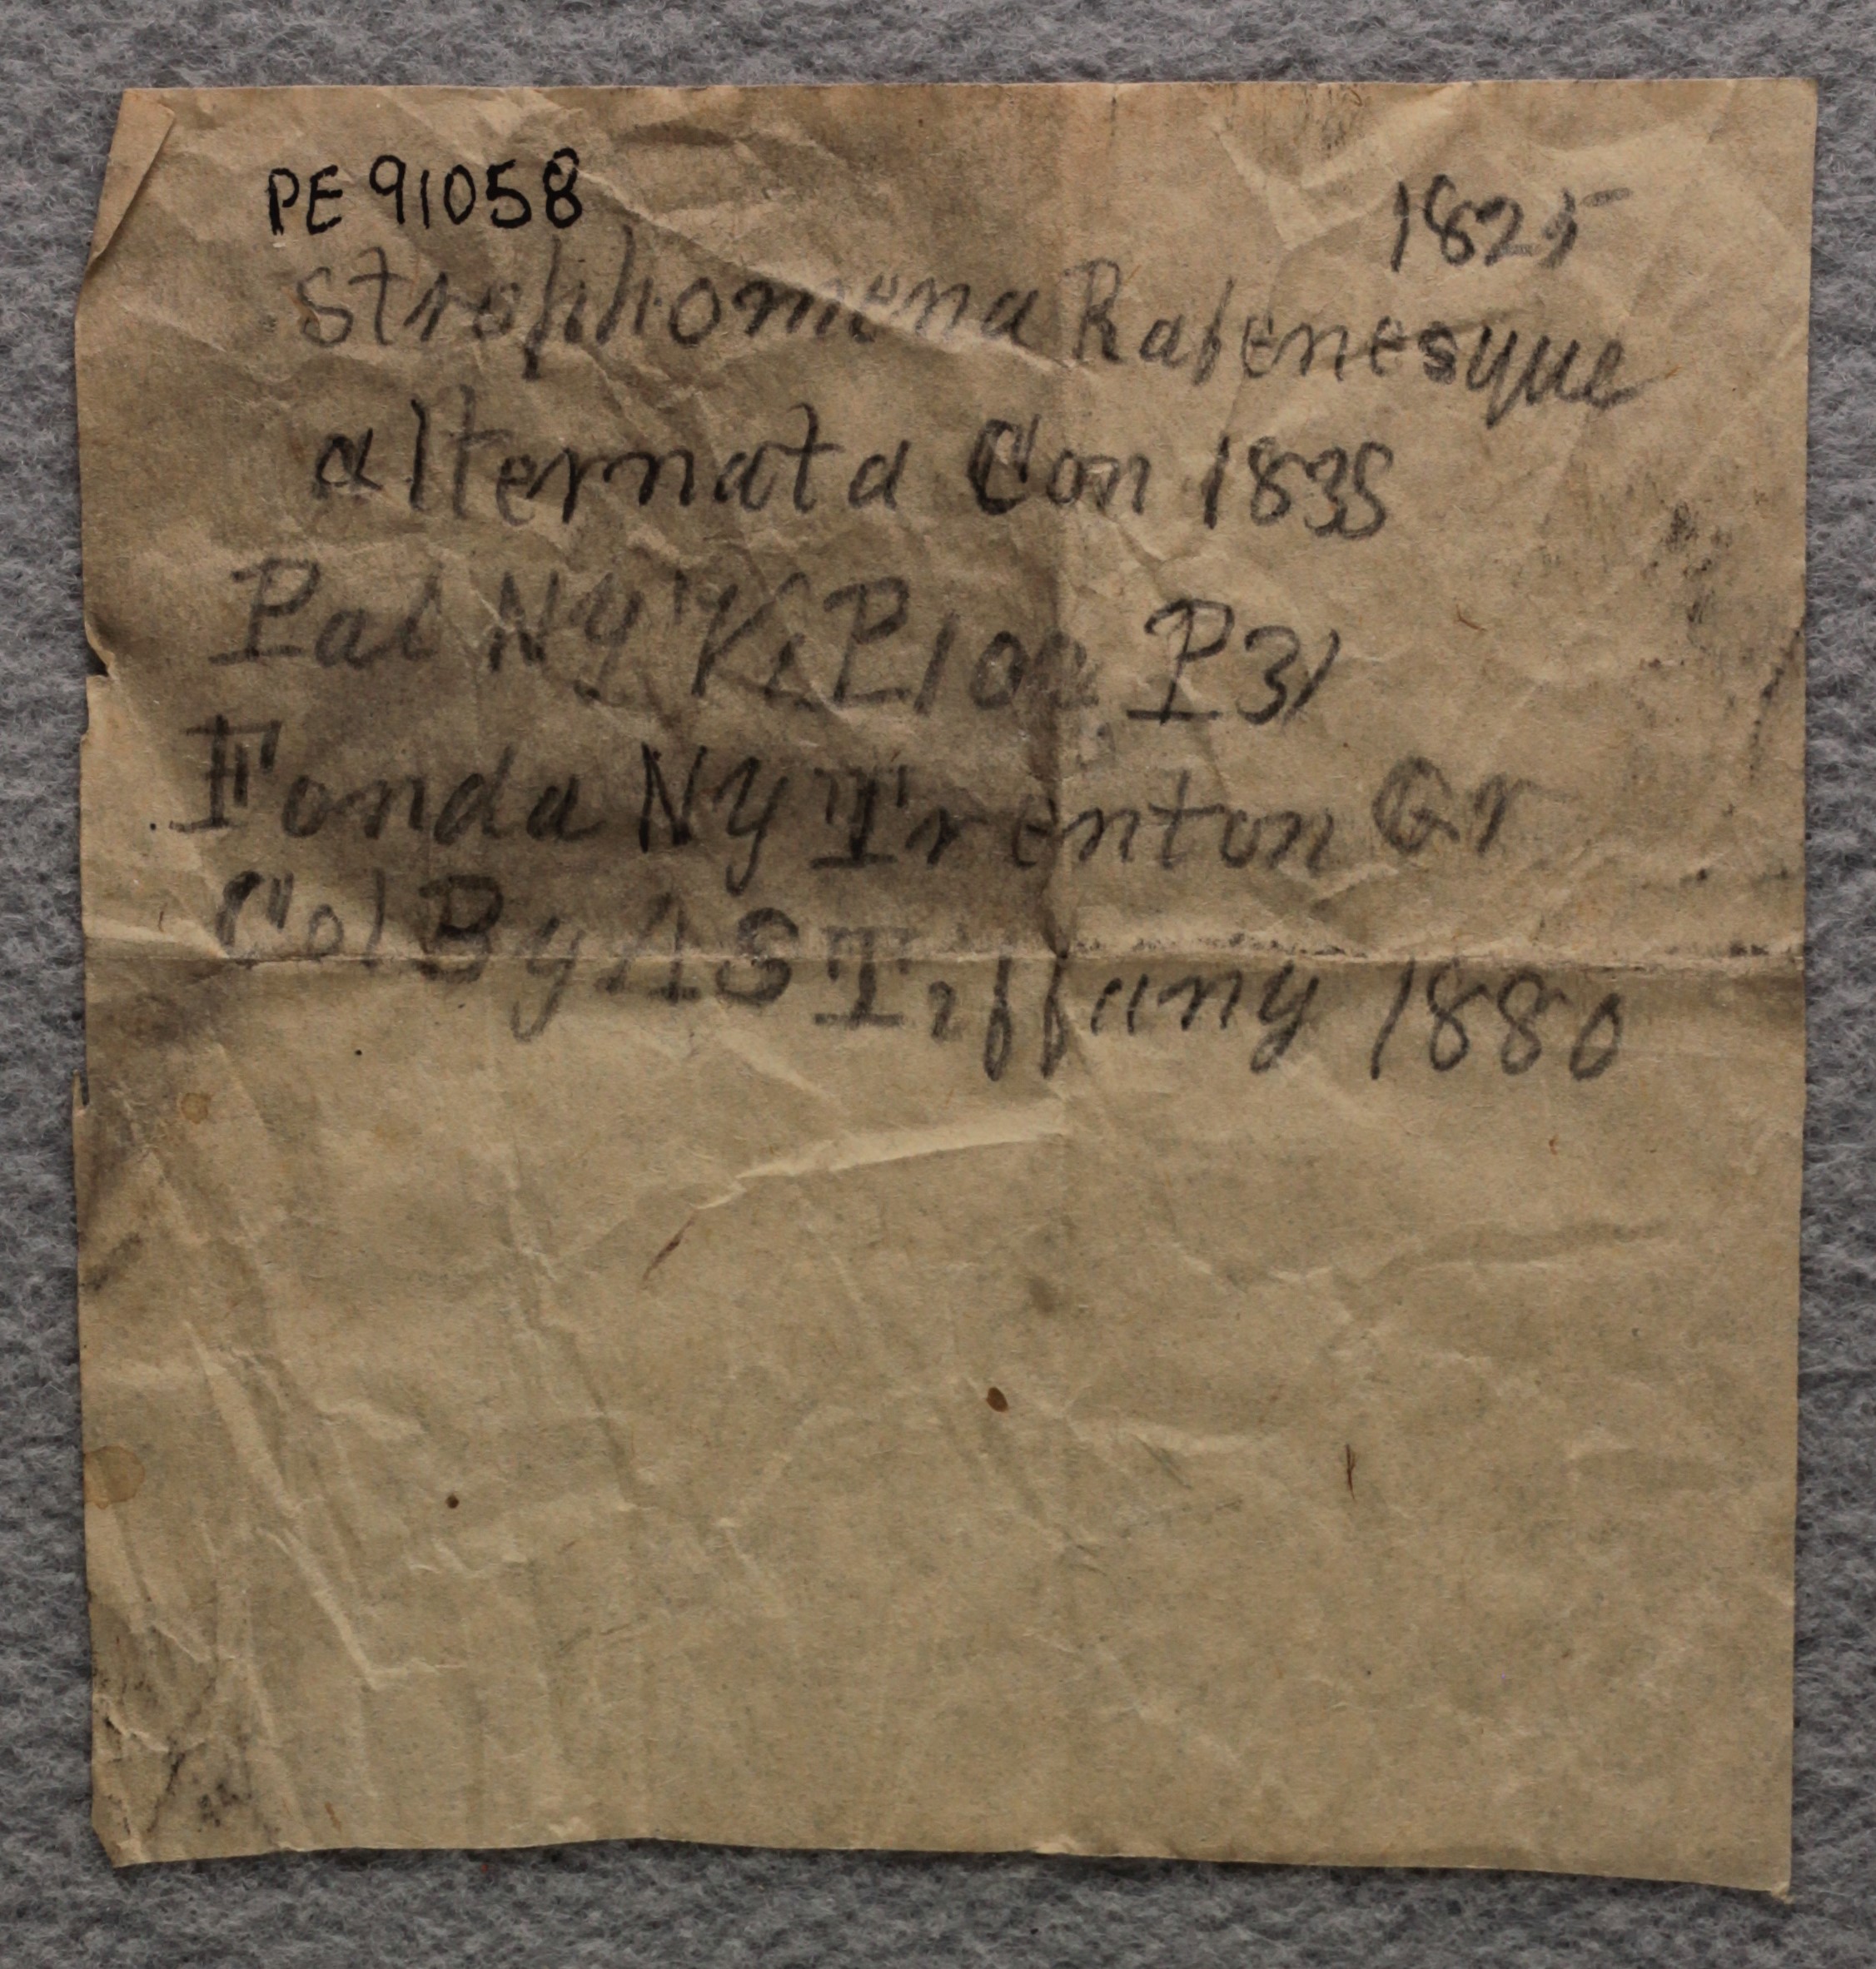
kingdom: Animalia
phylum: Brachiopoda
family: Strophomenidae
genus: Rafinesquina
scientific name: Rafinesquina Leptaena alternata
